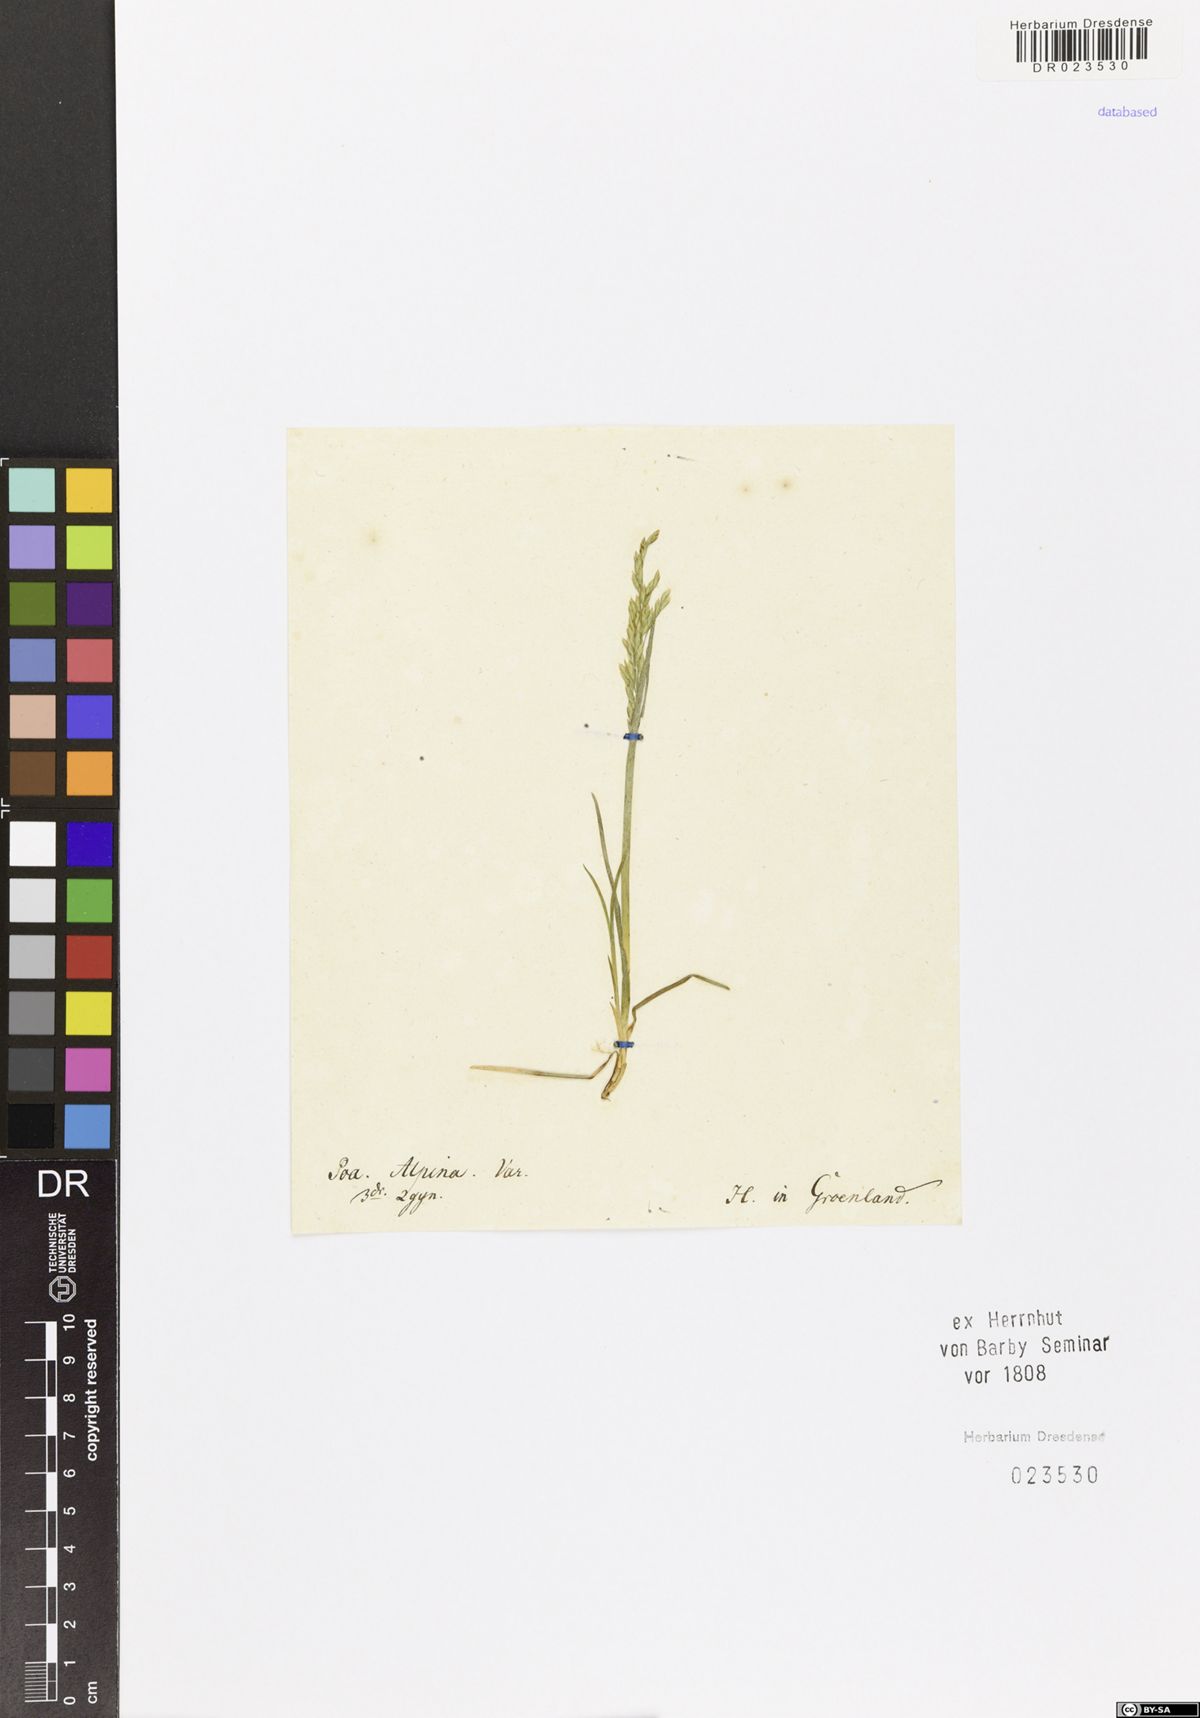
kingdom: Plantae
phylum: Tracheophyta
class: Liliopsida
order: Poales
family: Poaceae
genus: Poa
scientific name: Poa alpina
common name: Alpine bluegrass
